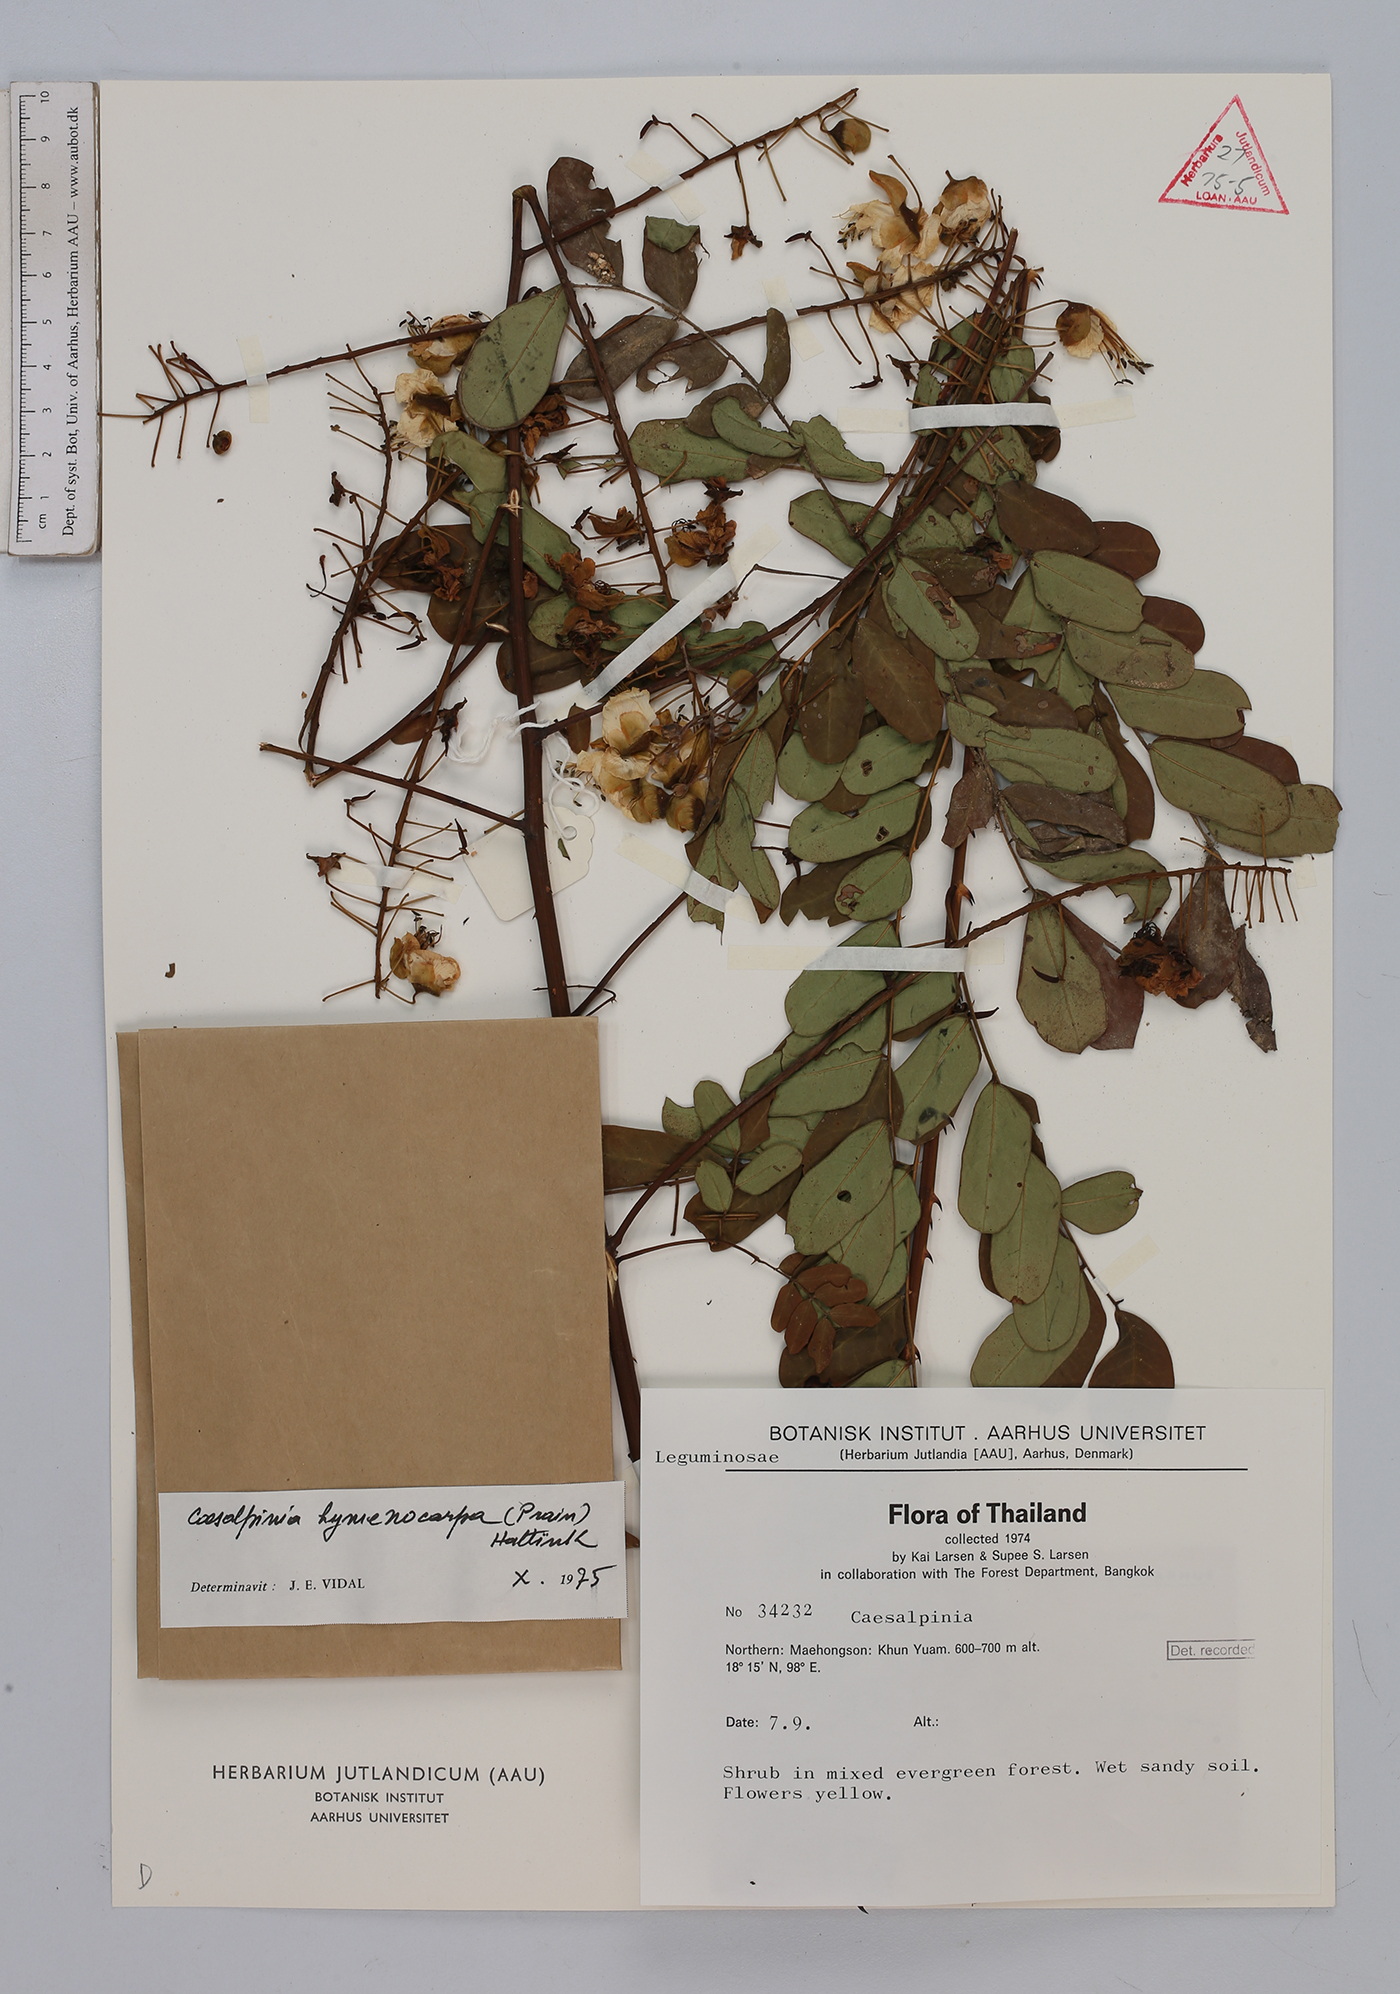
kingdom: Plantae
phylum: Tracheophyta
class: Magnoliopsida
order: Fabales
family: Fabaceae
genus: Mezoneuron
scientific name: Mezoneuron hymenocarpum
